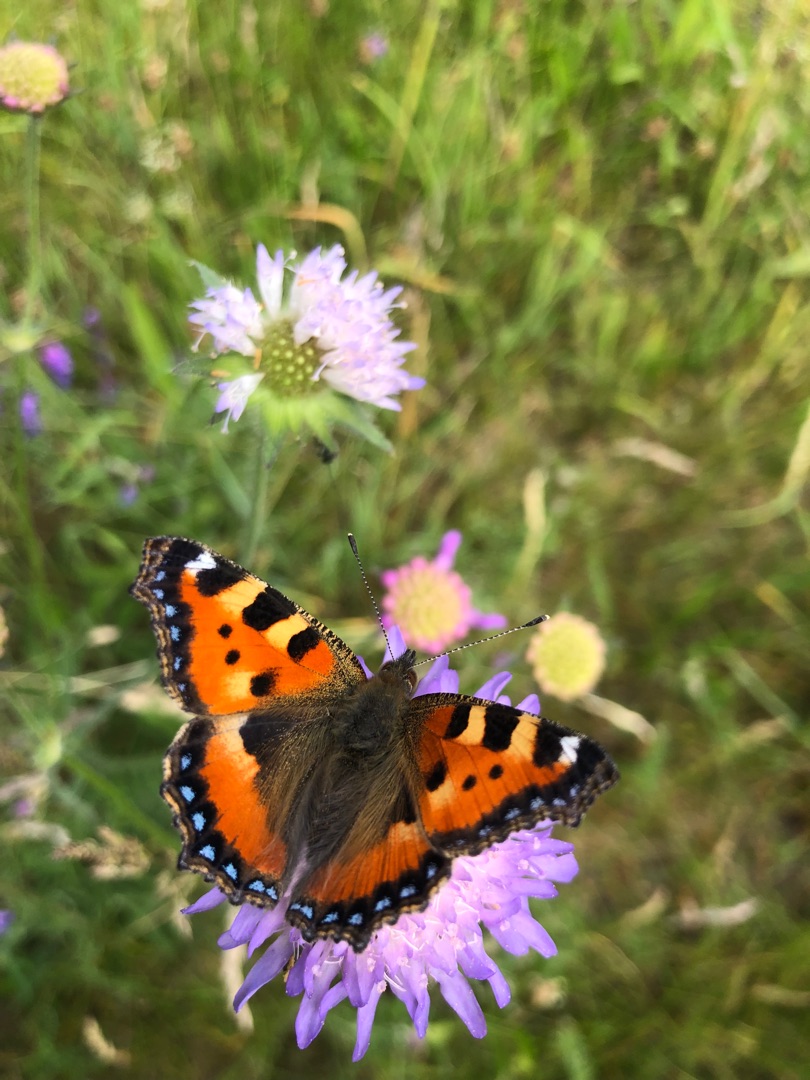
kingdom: Animalia
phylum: Arthropoda
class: Insecta
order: Lepidoptera
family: Nymphalidae
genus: Aglais
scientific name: Aglais urticae
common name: Nældens takvinge
